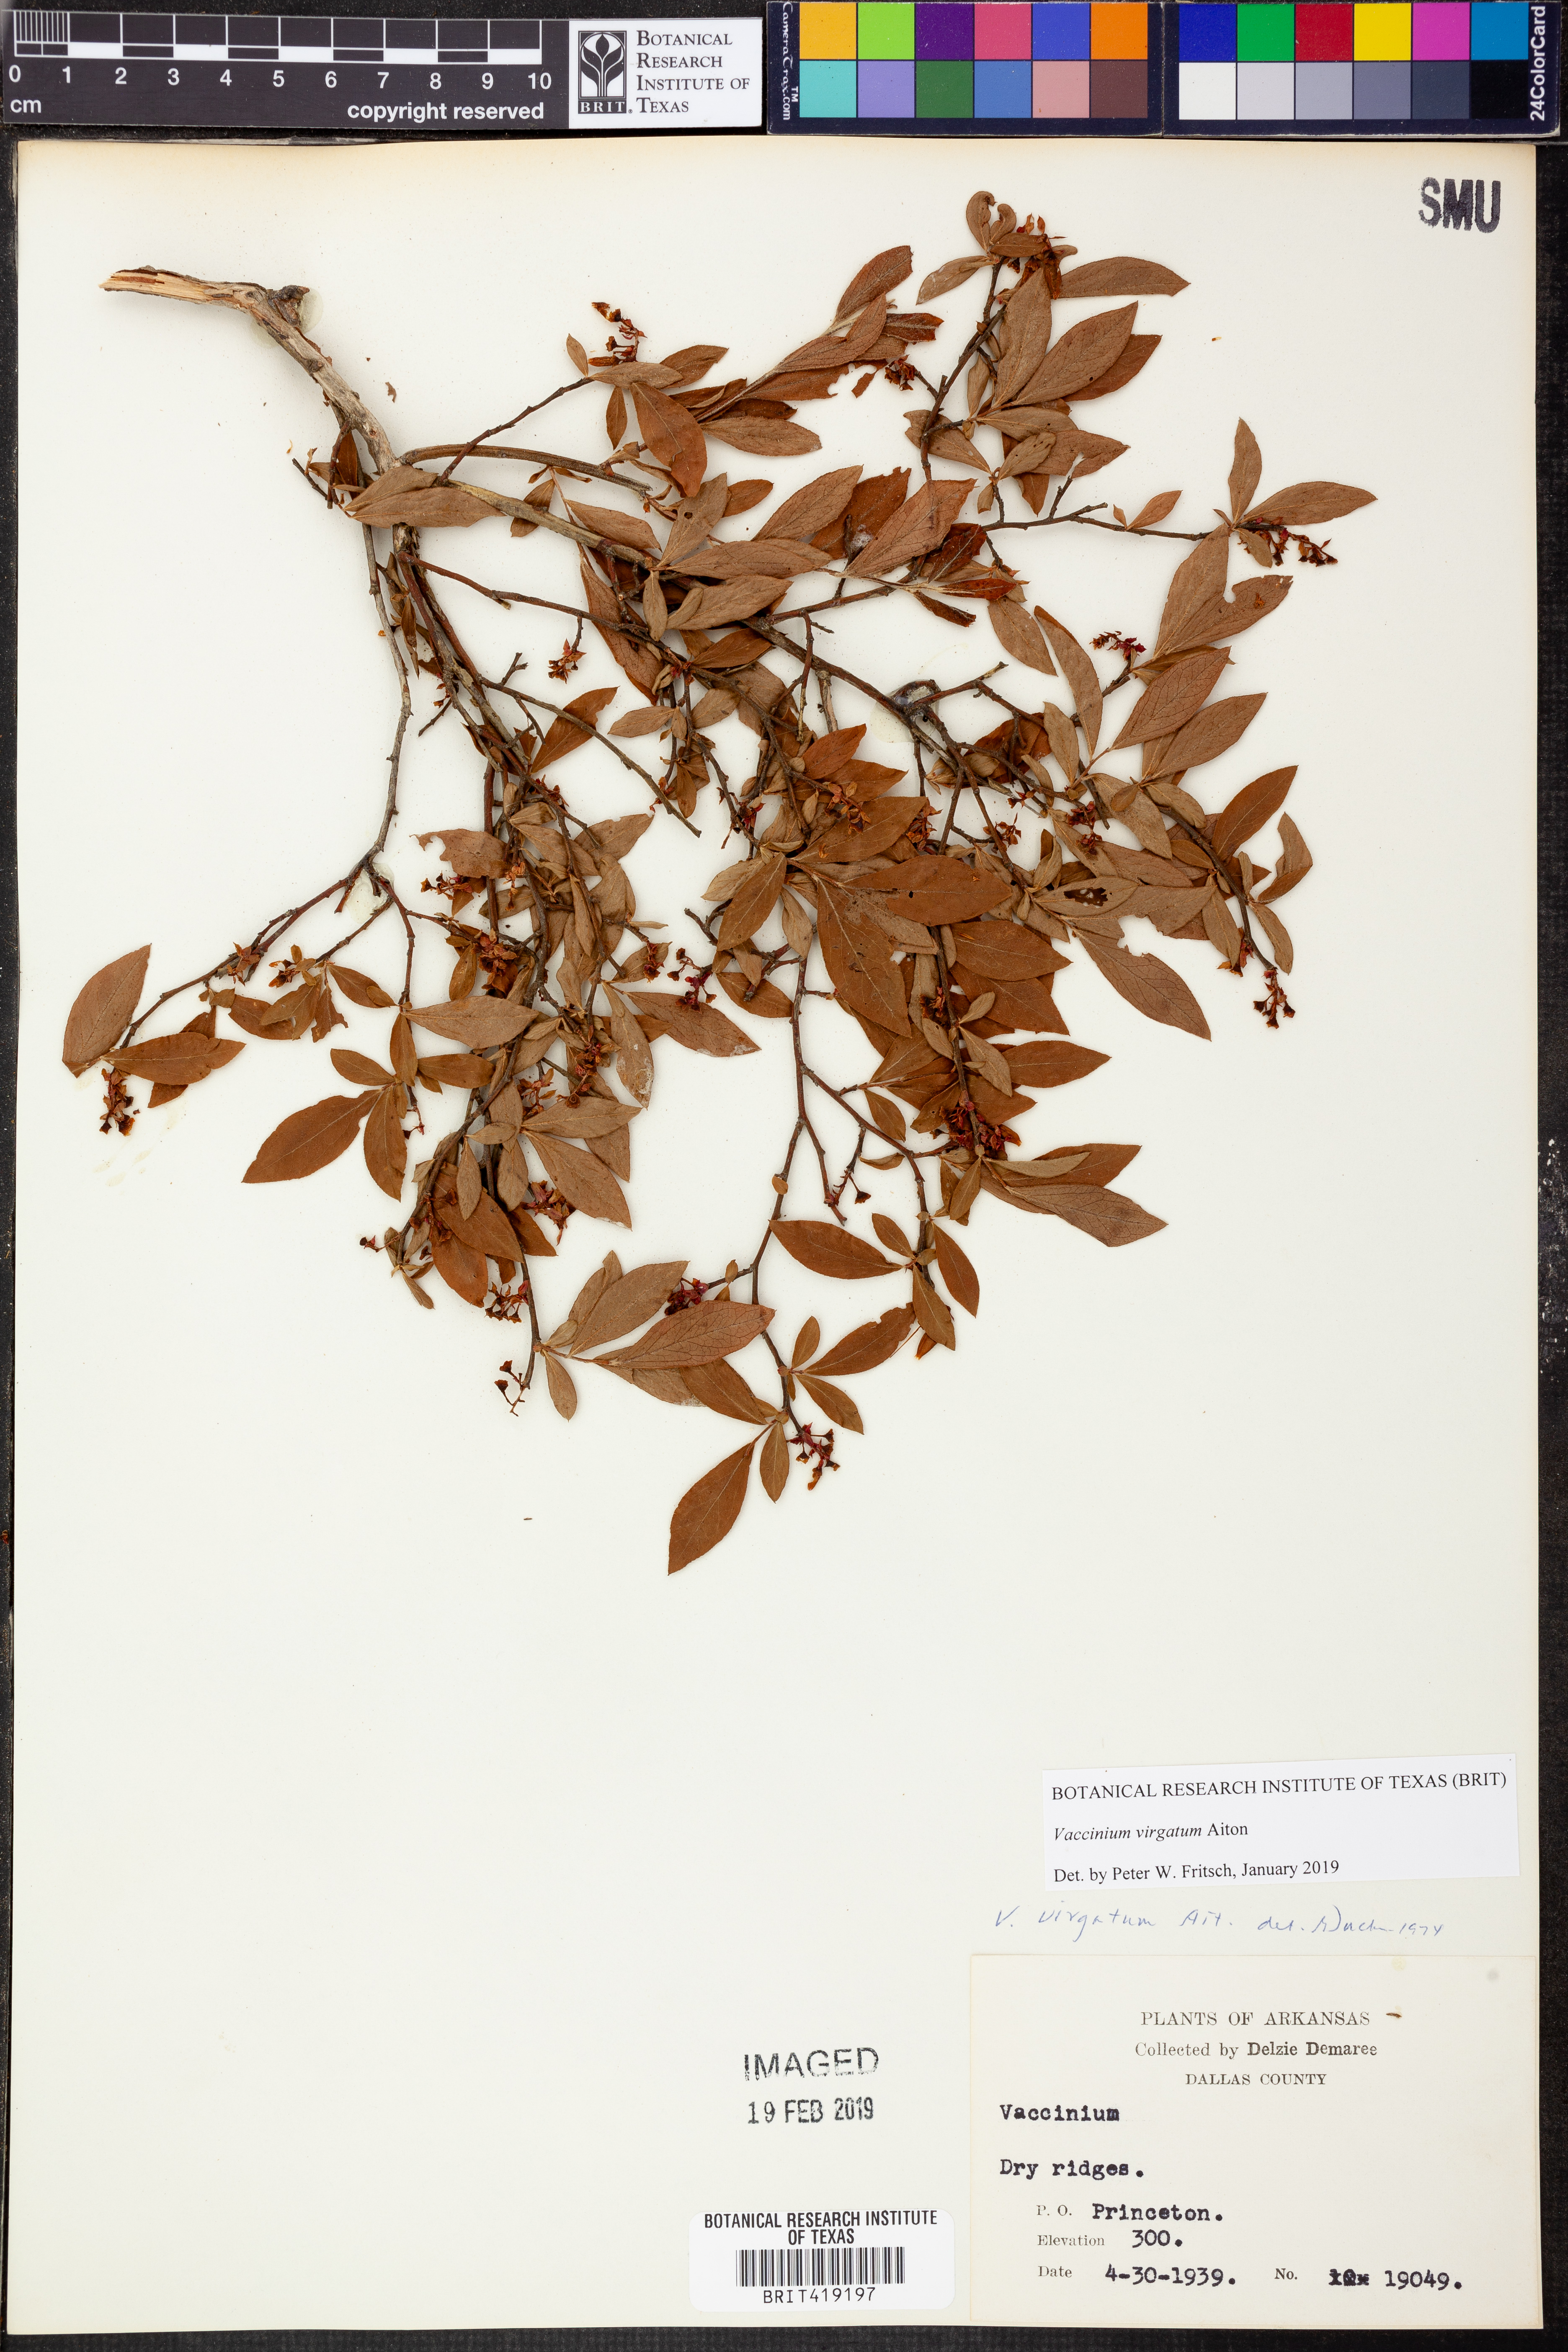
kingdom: Plantae
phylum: Tracheophyta
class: Magnoliopsida
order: Ericales
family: Ericaceae
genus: Vaccinium
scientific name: Vaccinium corymbosum
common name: Blueberry
